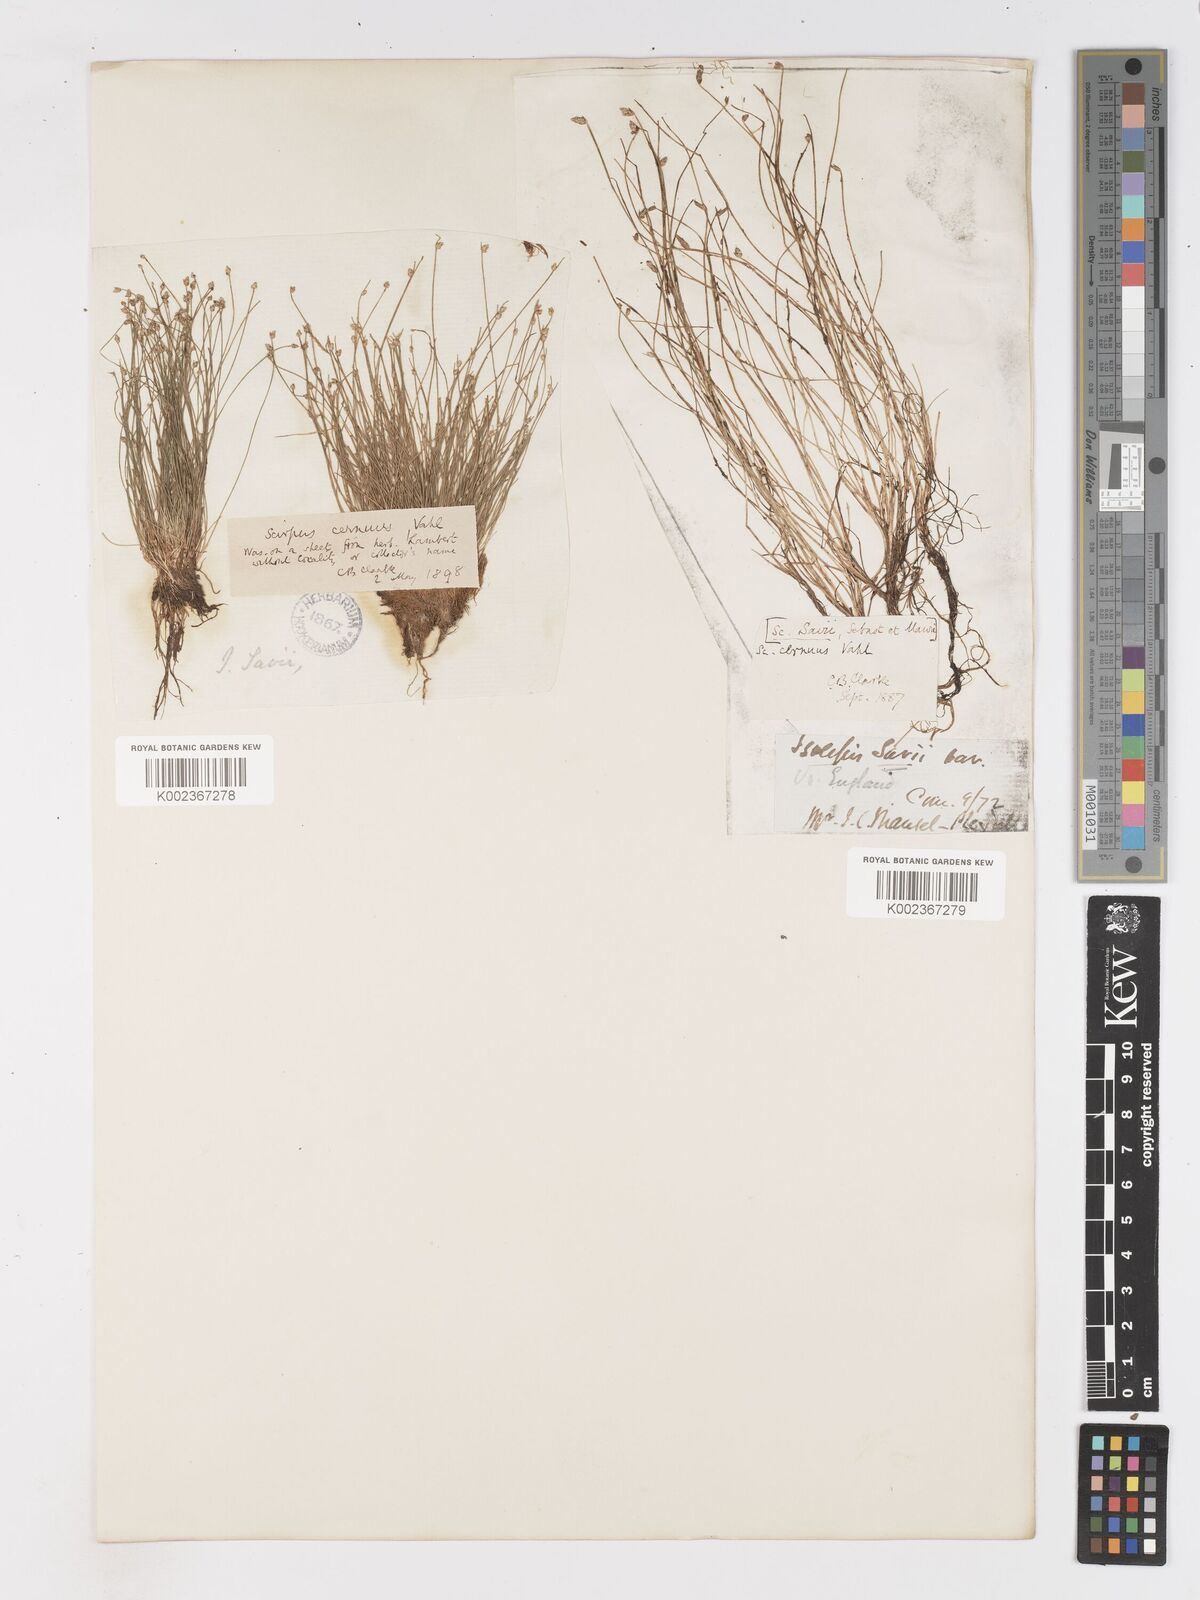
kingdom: Plantae
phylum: Tracheophyta
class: Liliopsida
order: Poales
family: Cyperaceae
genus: Isolepis
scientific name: Isolepis cernua
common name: Slender club-rush
